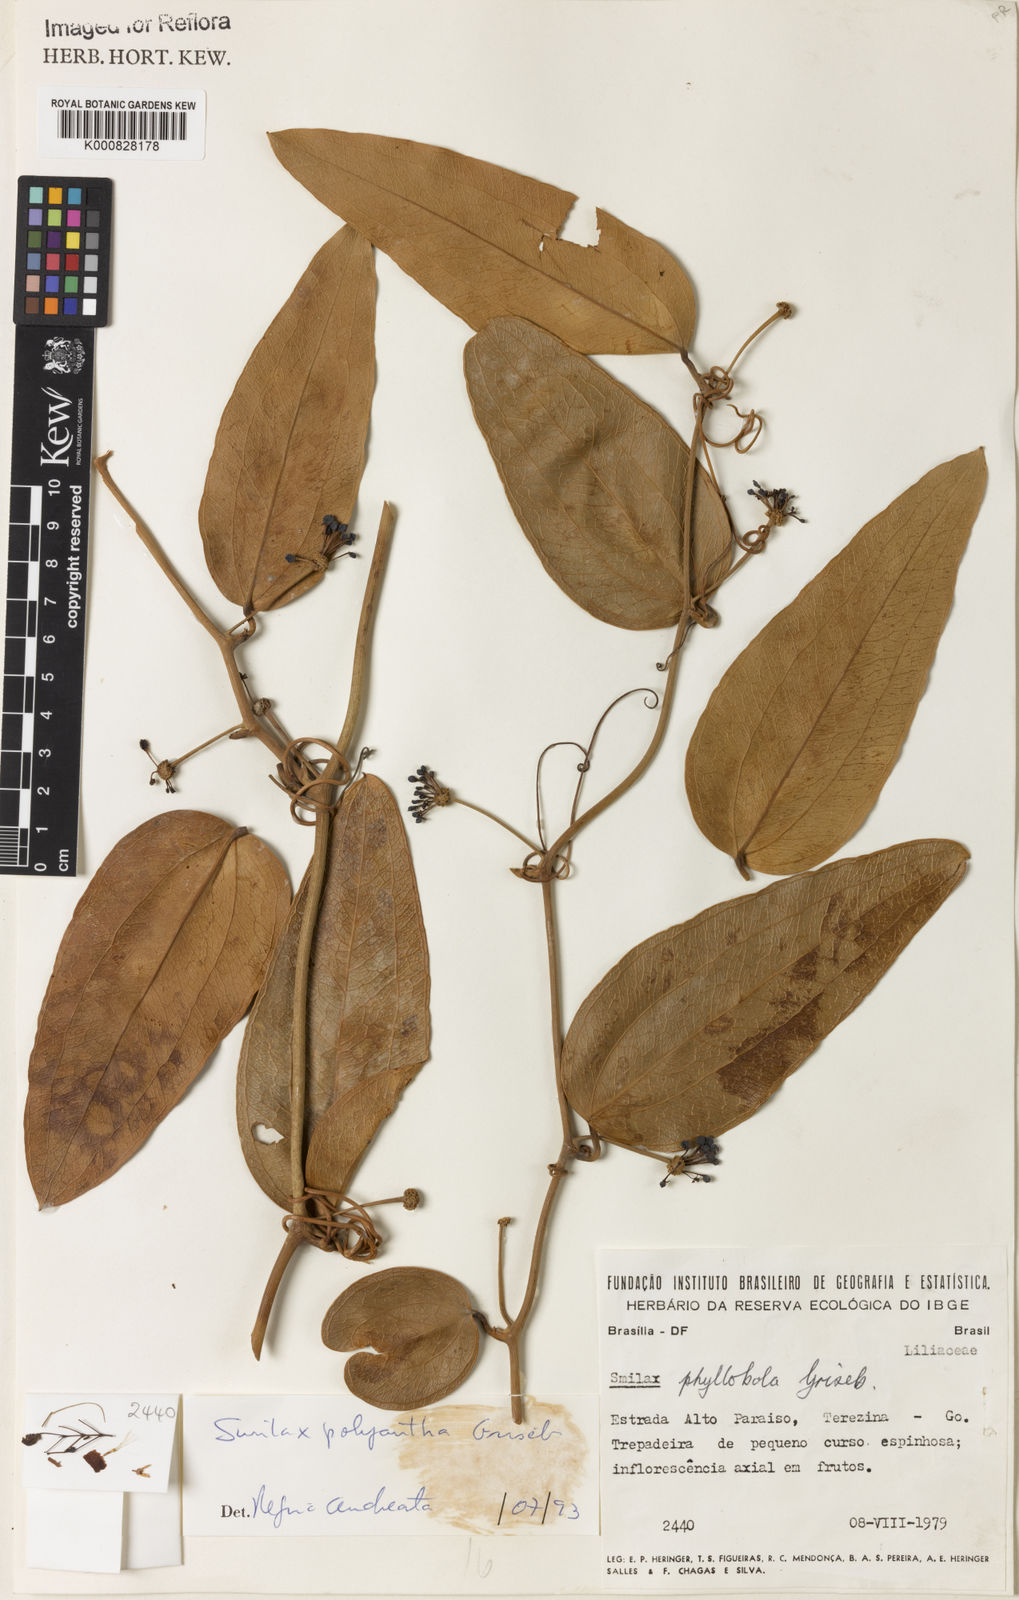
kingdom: Plantae
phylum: Tracheophyta
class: Liliopsida
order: Liliales
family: Smilacaceae
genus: Smilax
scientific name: Smilax polyantha
